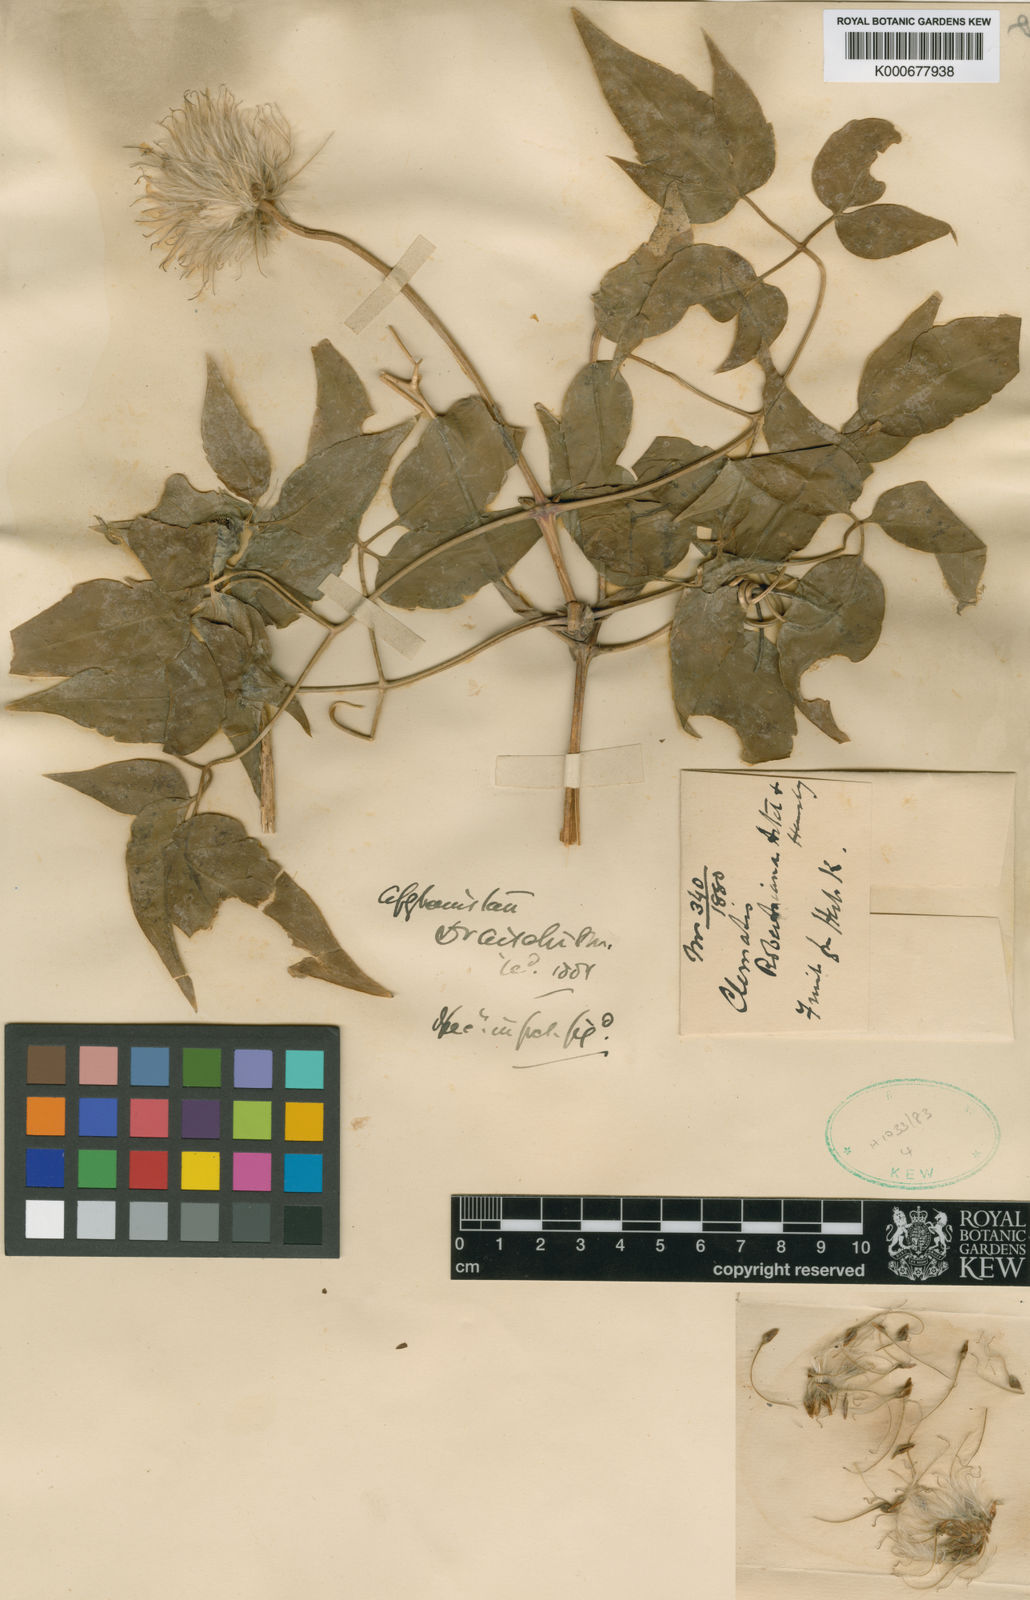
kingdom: Plantae
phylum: Tracheophyta
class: Magnoliopsida
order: Ranunculales
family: Ranunculaceae
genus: Clematis
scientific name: Clematis robertsiana
